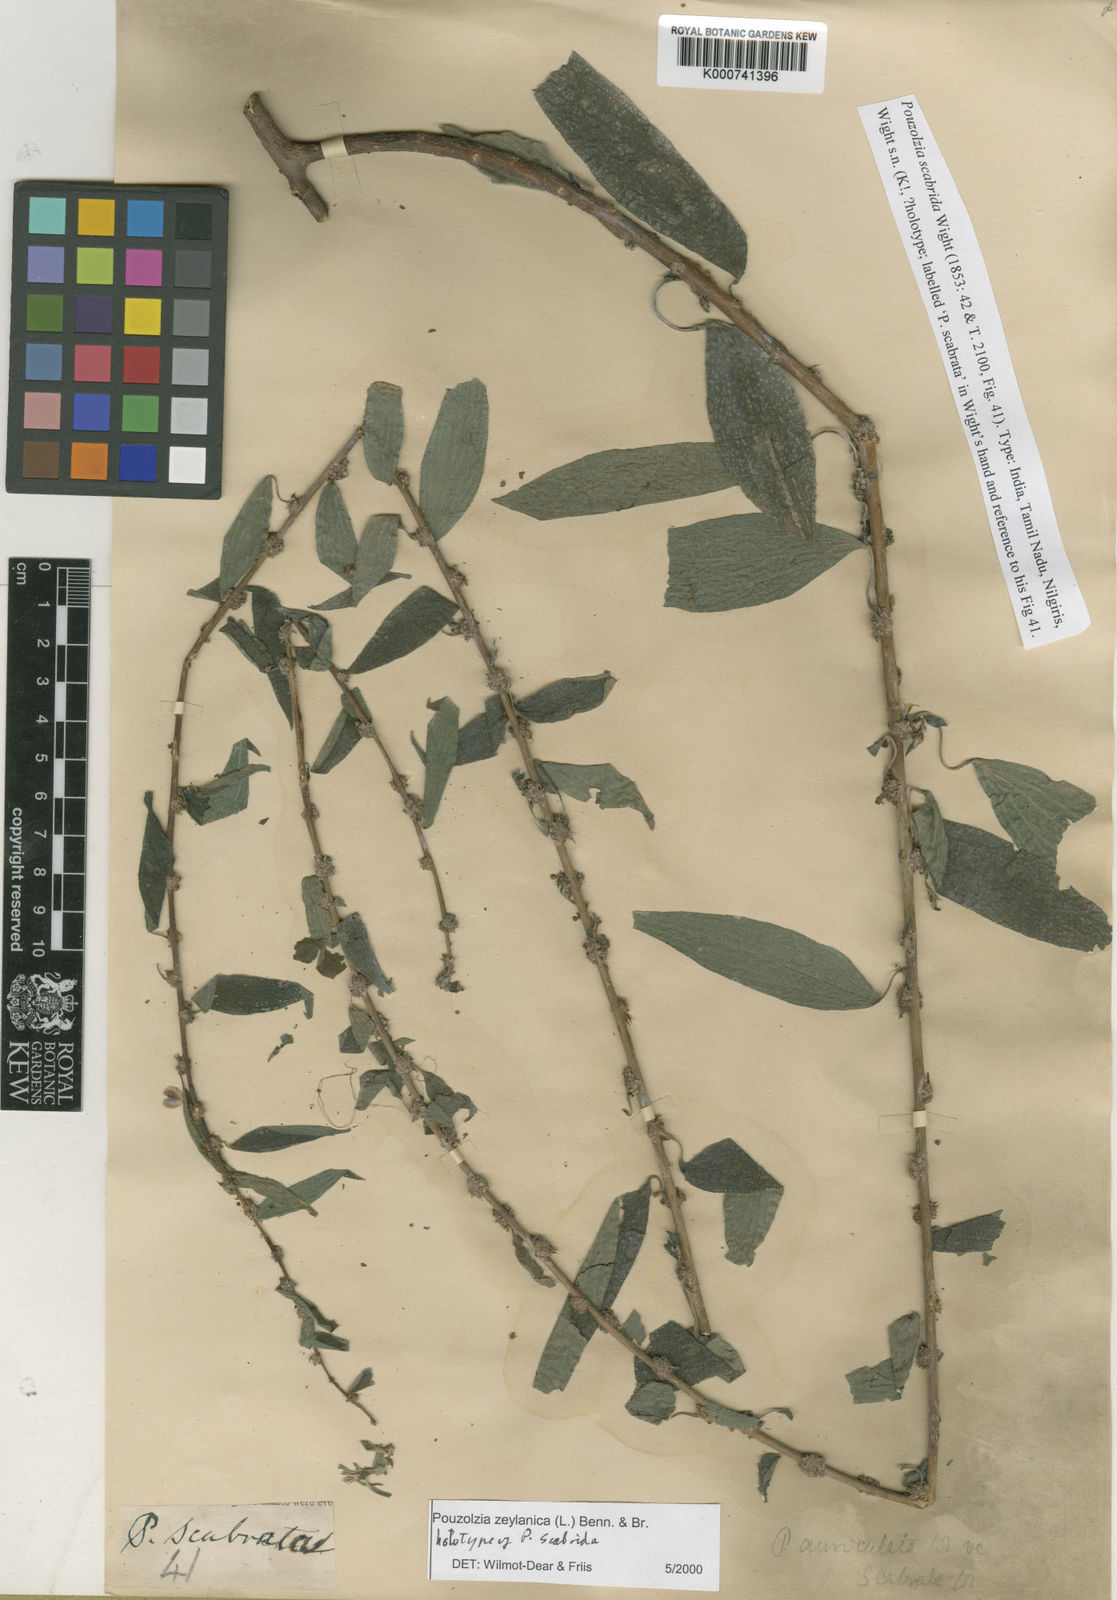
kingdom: Plantae
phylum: Tracheophyta
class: Magnoliopsida
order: Rosales
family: Urticaceae
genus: Pouzolzia
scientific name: Pouzolzia zeylanica
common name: Graceful pouzolzsbush
